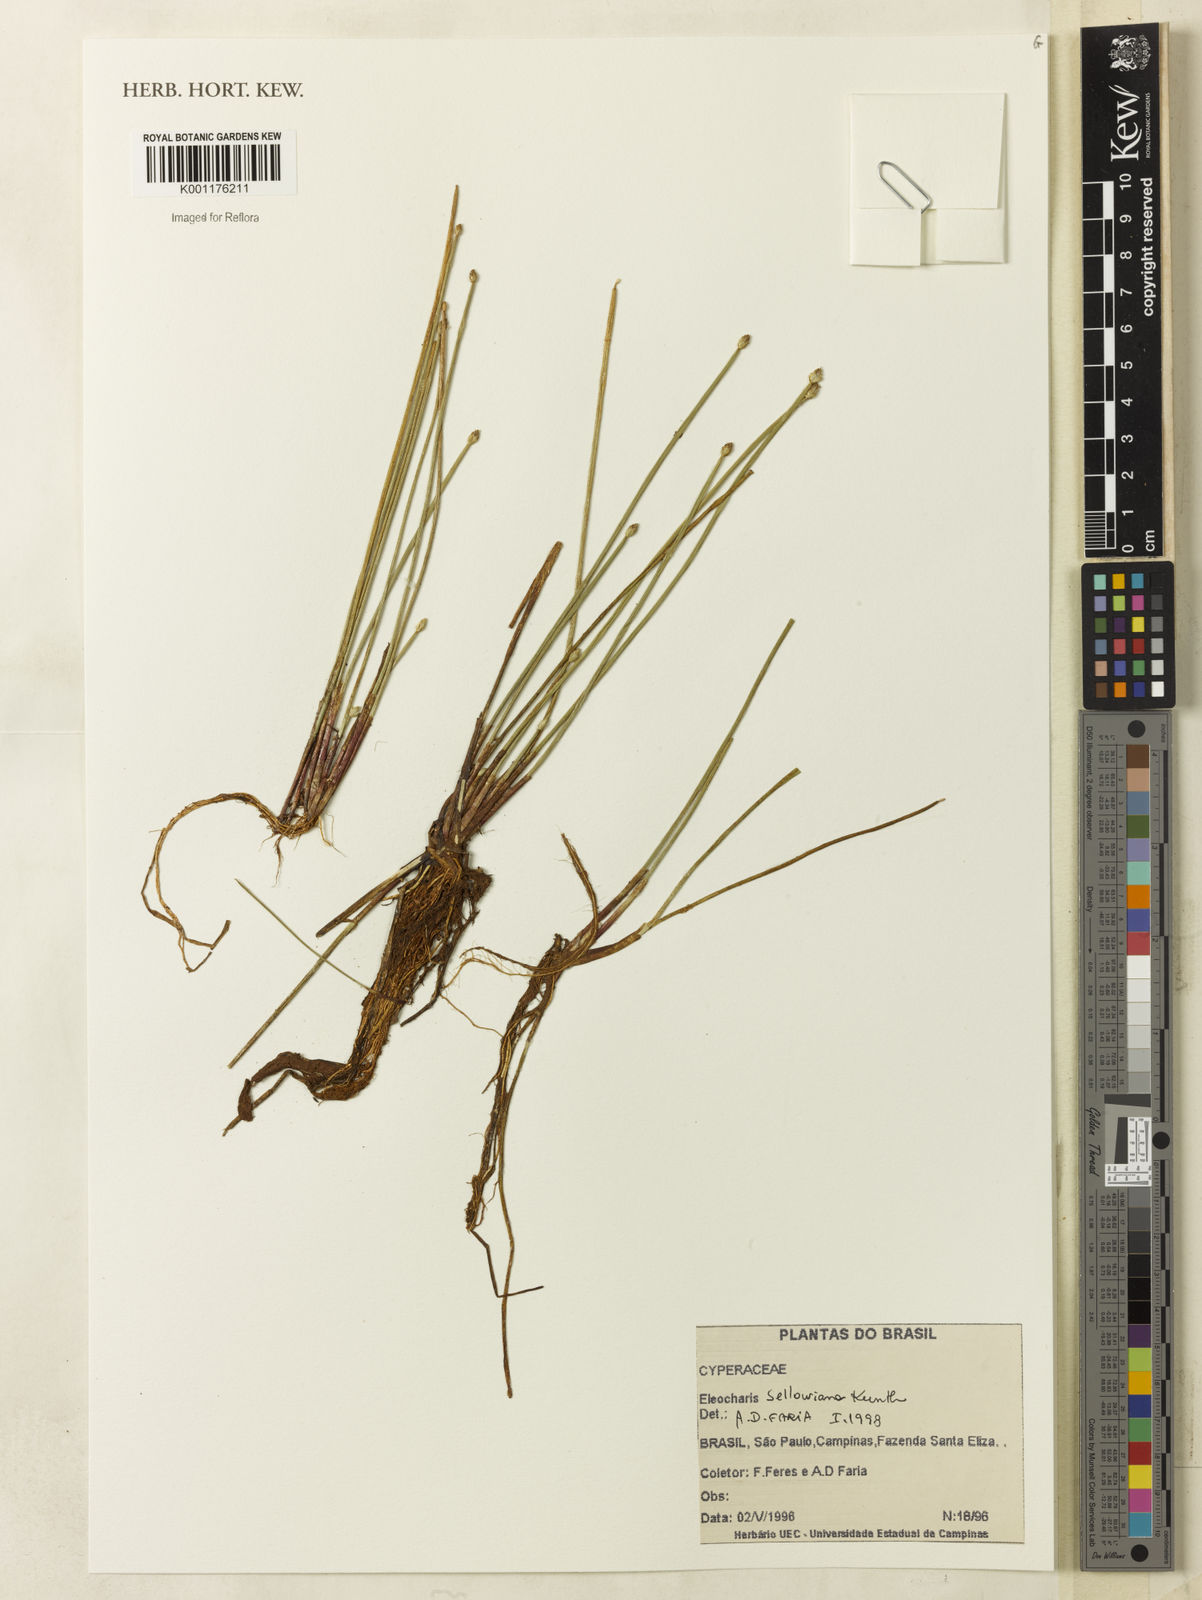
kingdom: Plantae
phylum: Tracheophyta
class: Liliopsida
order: Poales
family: Cyperaceae
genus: Eleocharis
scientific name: Eleocharis sellowiana
